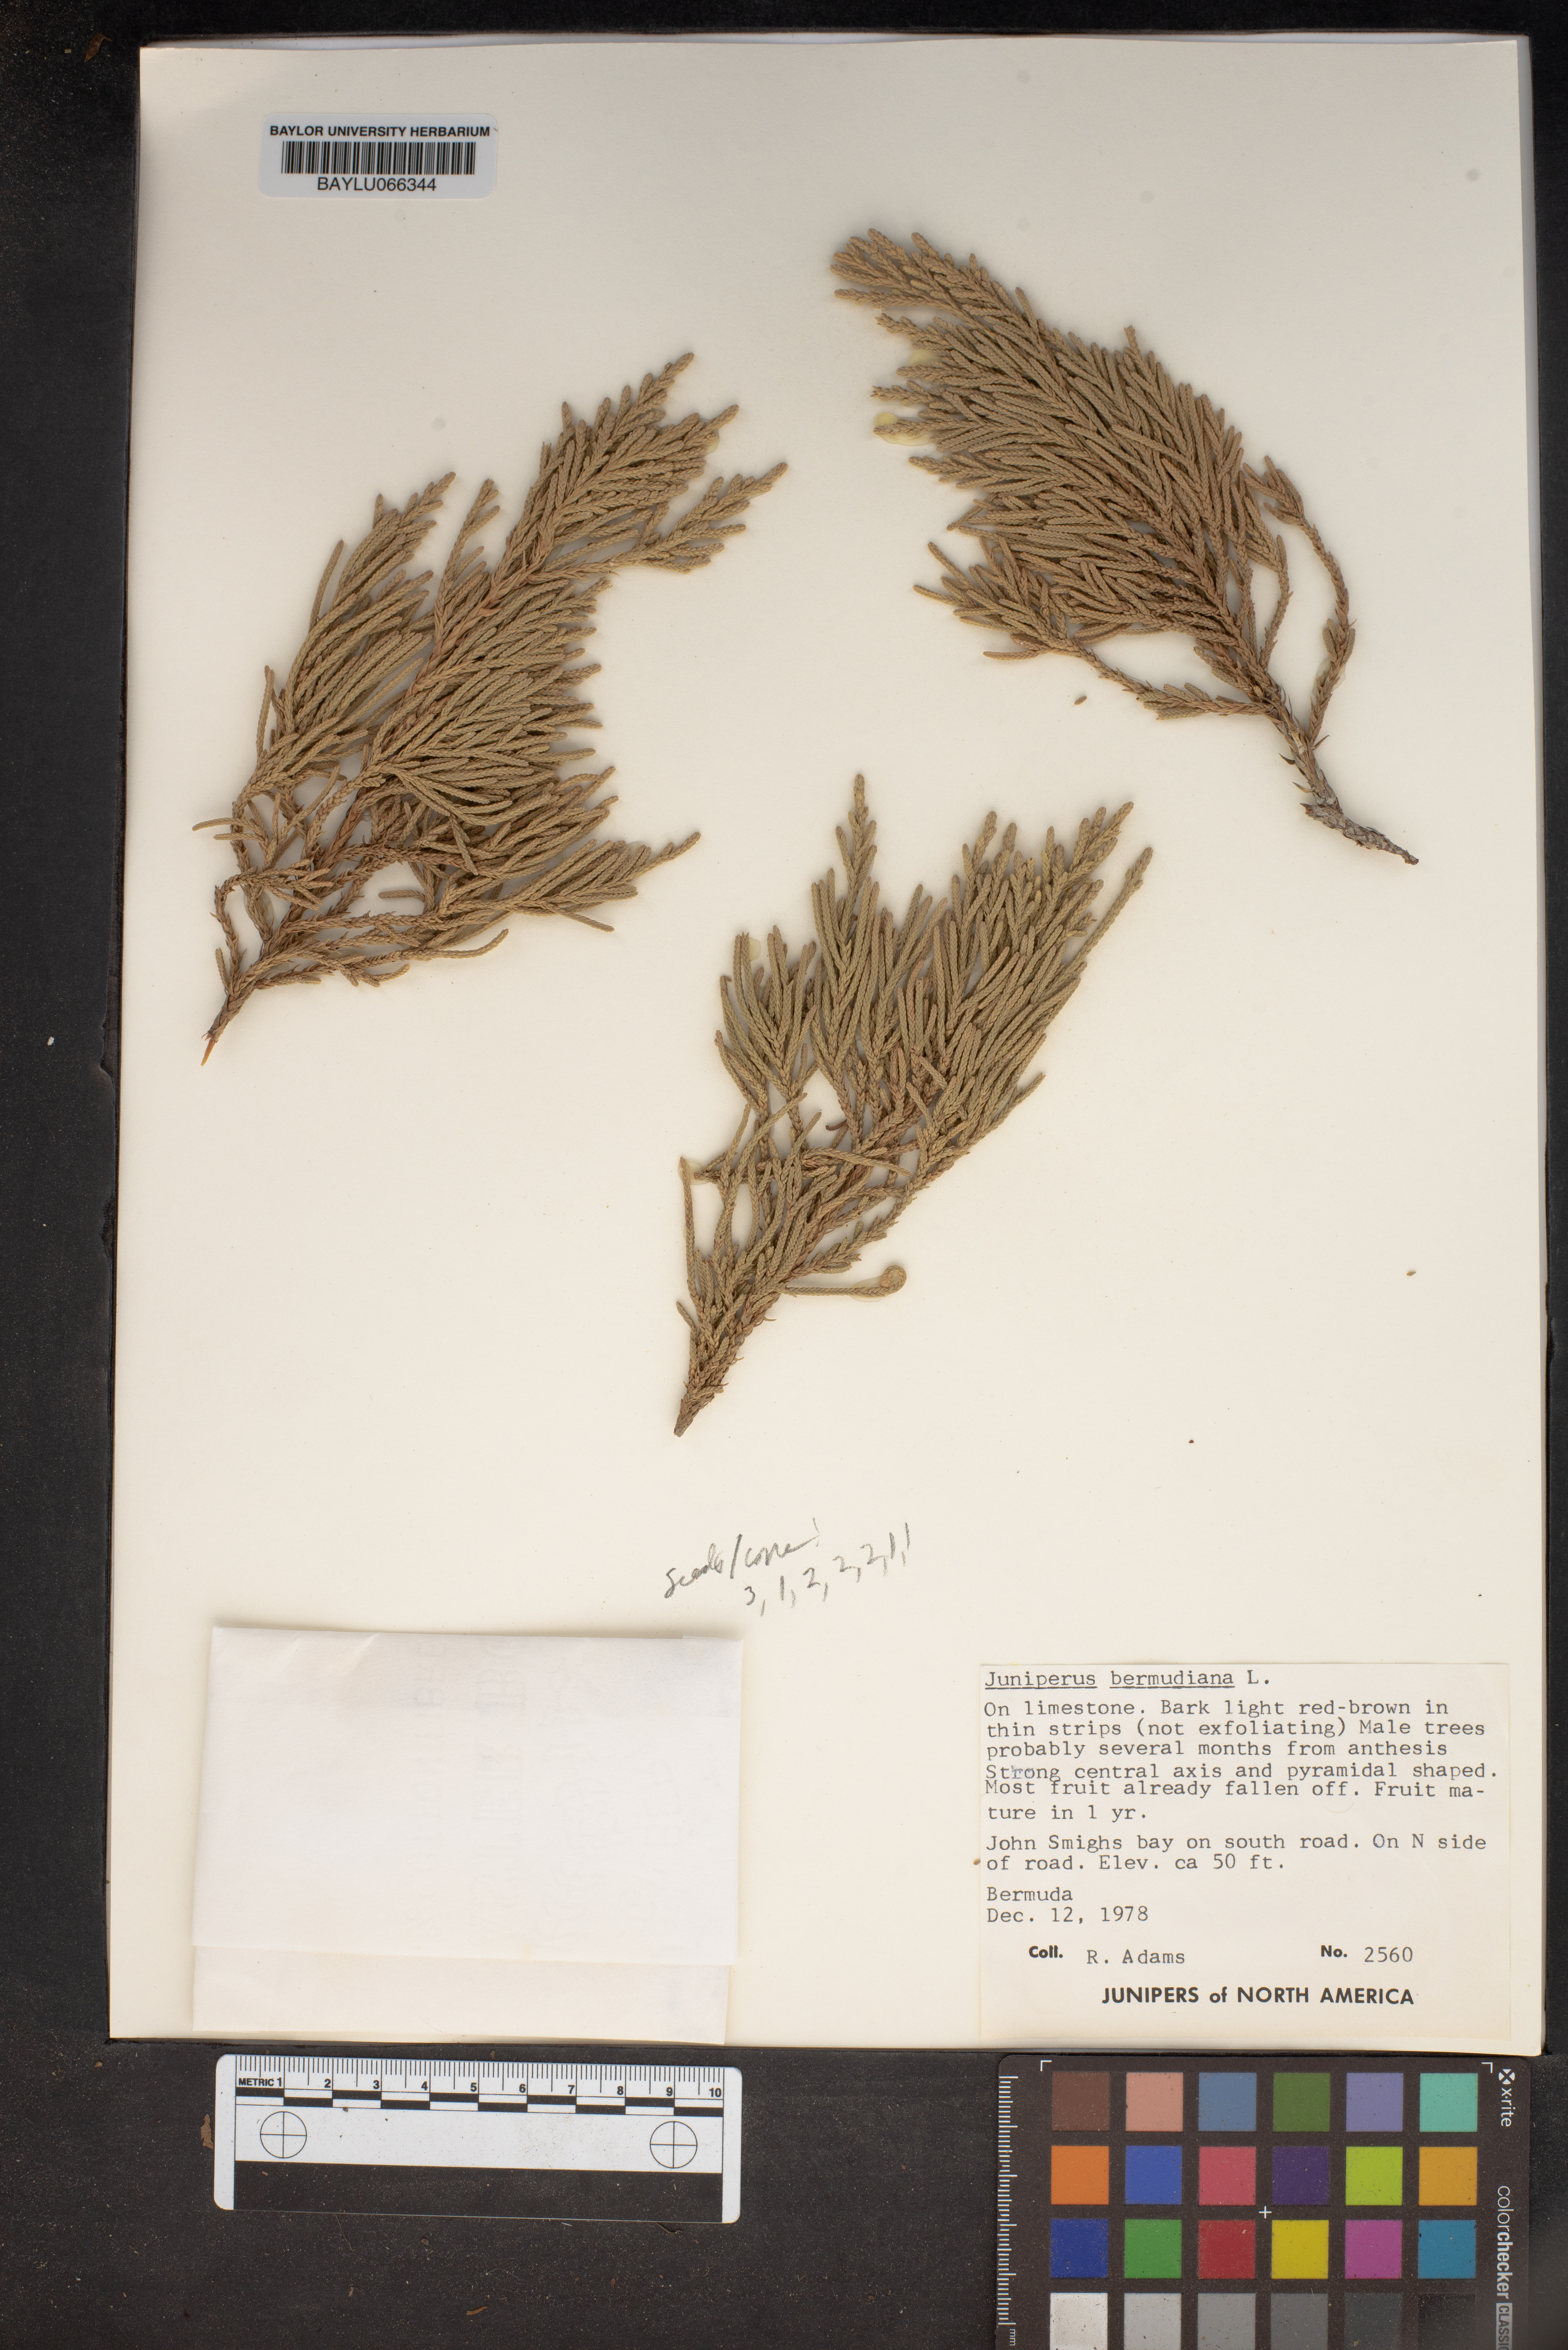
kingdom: Plantae
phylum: Tracheophyta
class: Pinopsida
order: Pinales
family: Cupressaceae
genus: Juniperus
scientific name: Juniperus bermudiana
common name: Bermuda juniper
